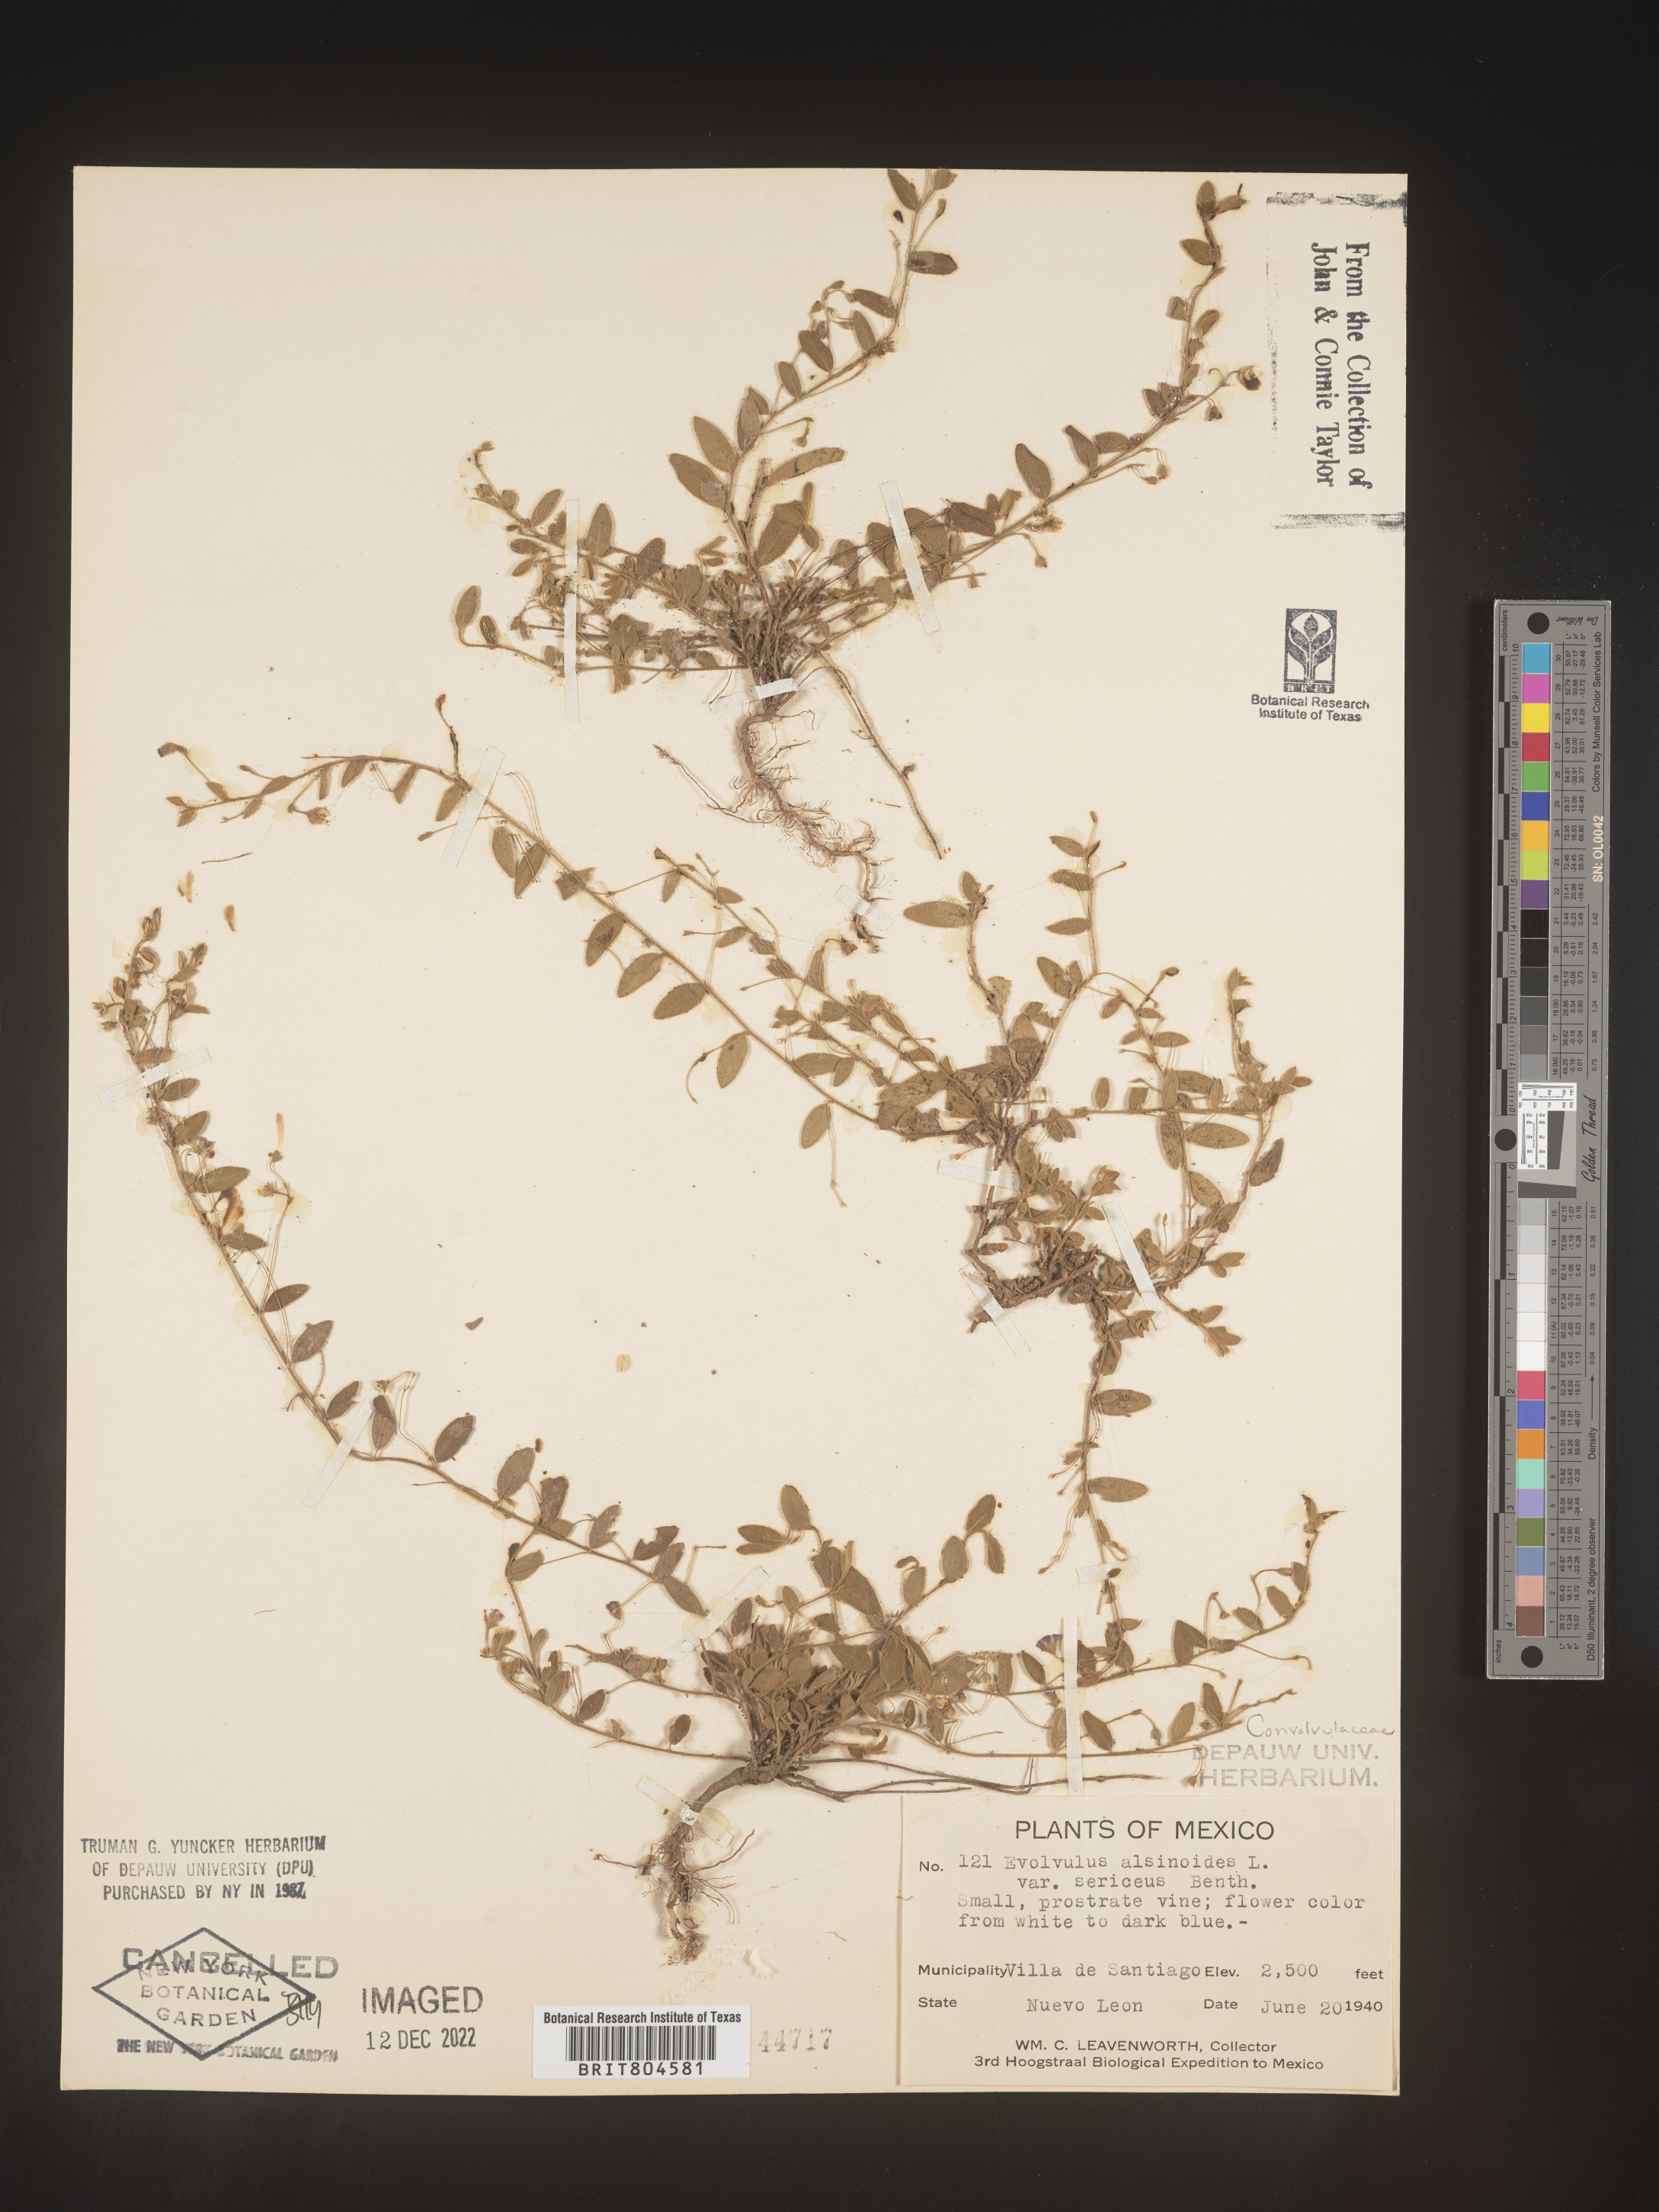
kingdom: Plantae
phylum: Tracheophyta
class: Magnoliopsida
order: Solanales
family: Convolvulaceae
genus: Evolvulus
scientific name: Evolvulus
